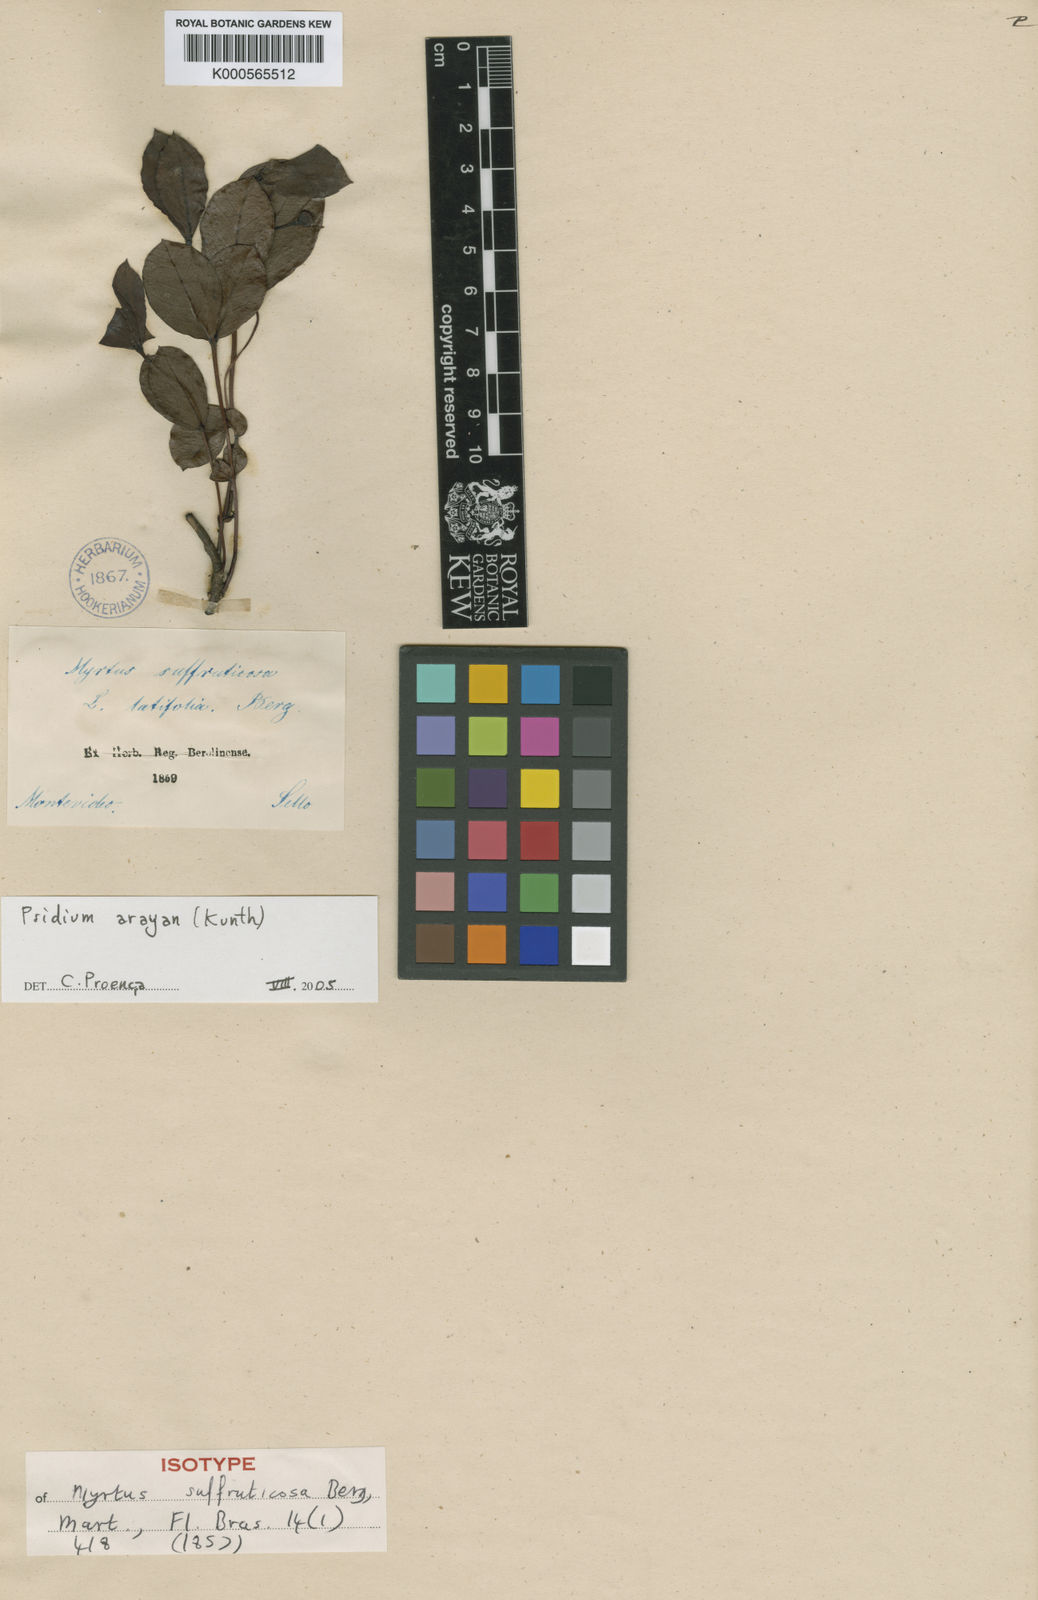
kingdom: Plantae
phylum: Tracheophyta
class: Magnoliopsida
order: Myrtales
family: Myrtaceae
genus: Psidium
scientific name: Psidium salutare
